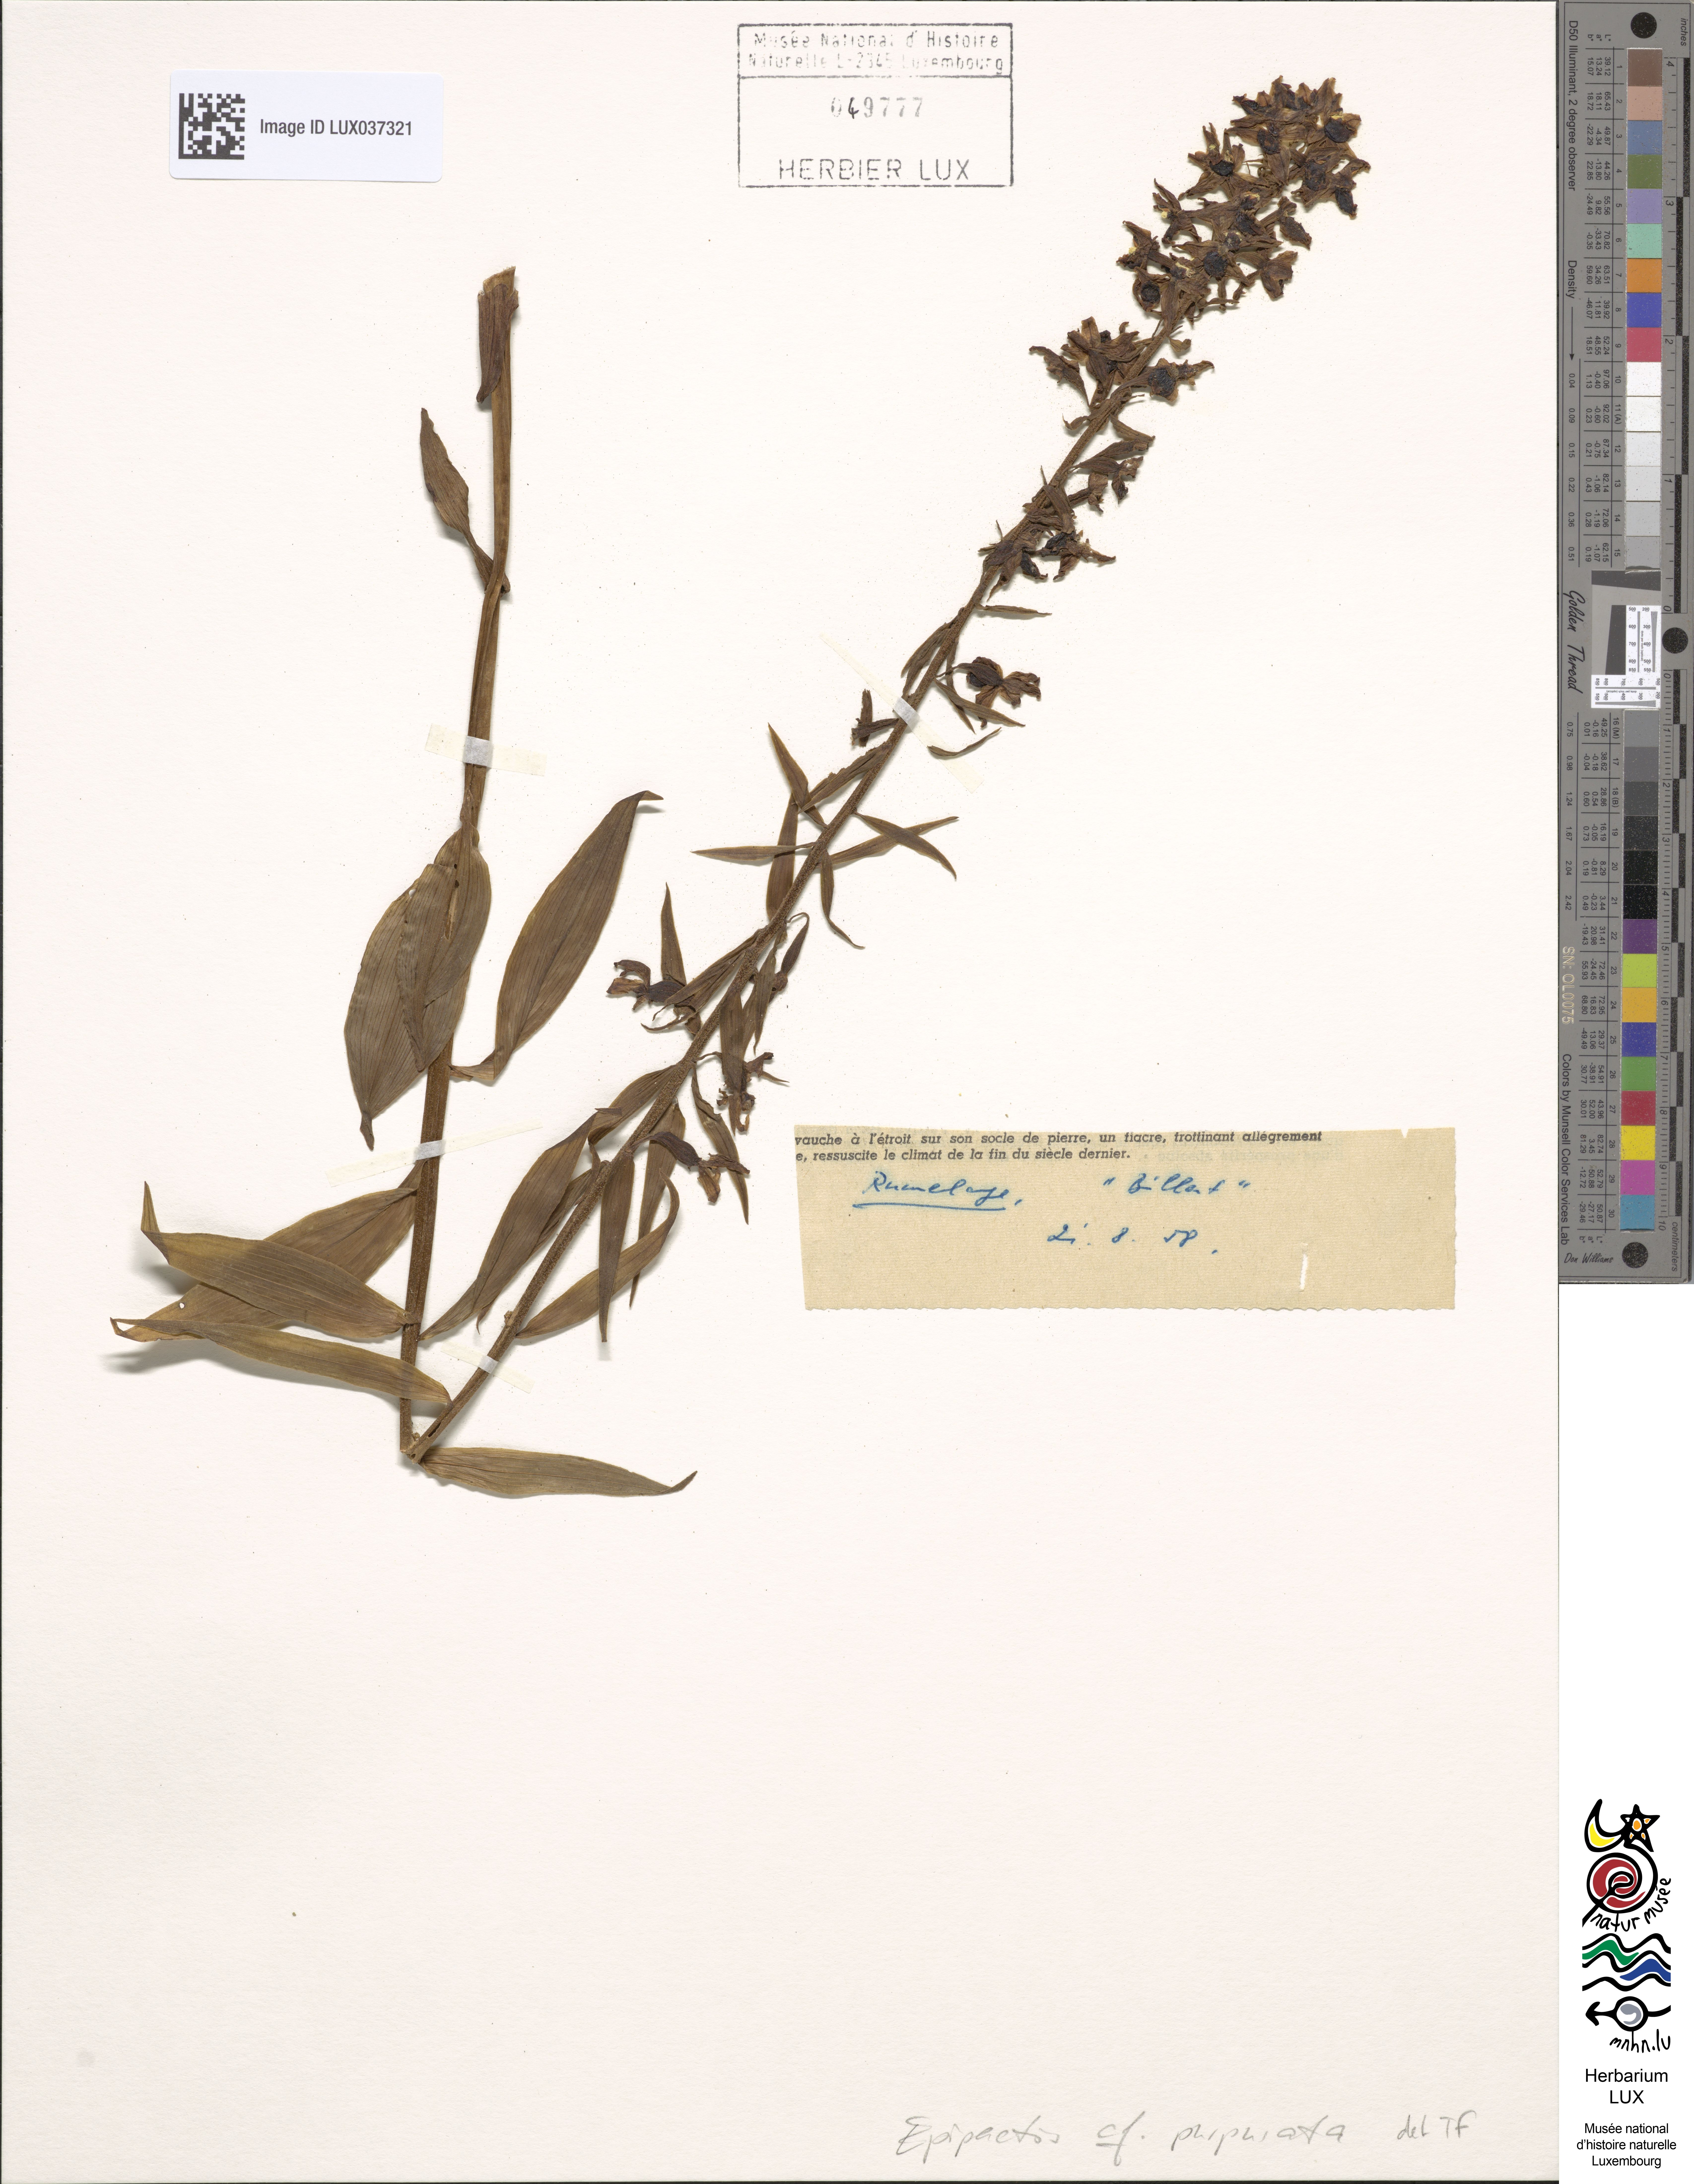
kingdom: Plantae
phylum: Tracheophyta
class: Liliopsida
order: Asparagales
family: Orchidaceae
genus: Epipactis
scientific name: Epipactis purpurata
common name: Violet helleborine
